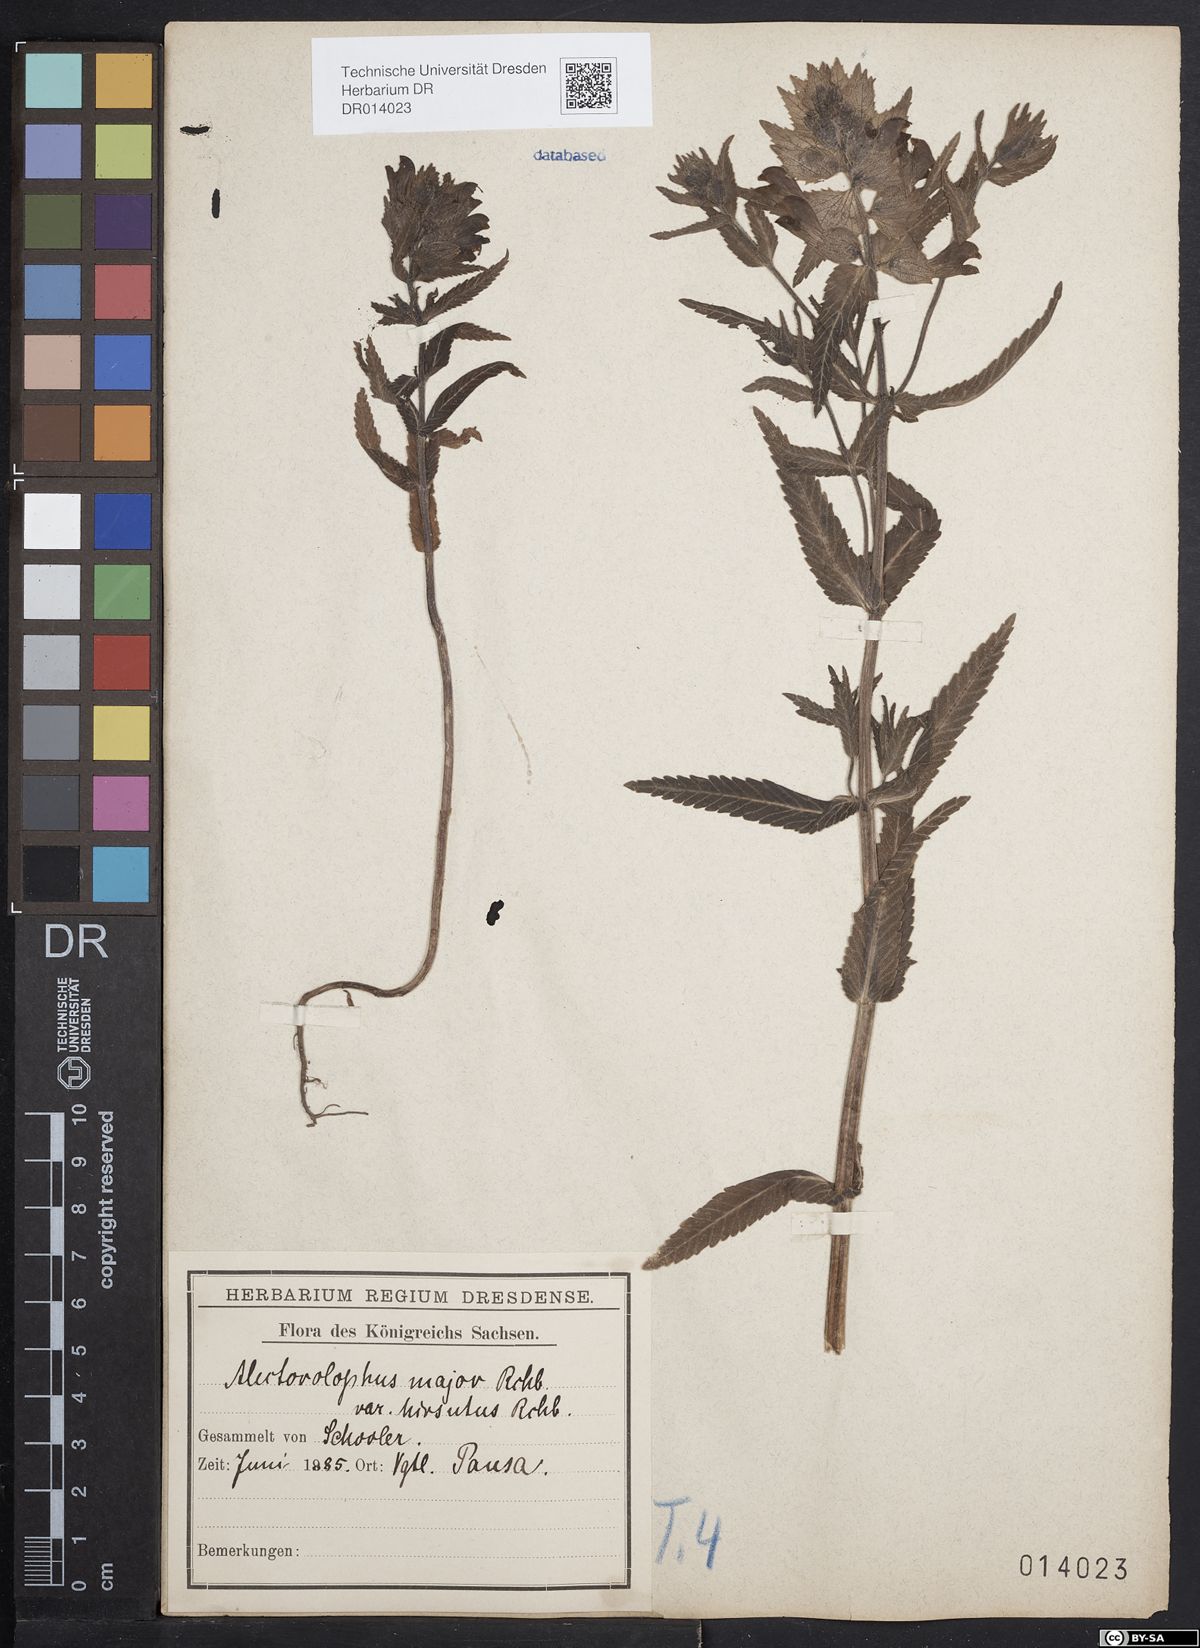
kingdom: Plantae
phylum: Tracheophyta
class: Magnoliopsida
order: Lamiales
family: Orobanchaceae
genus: Rhinanthus
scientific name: Rhinanthus alectorolophus
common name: Greater yellow-rattle
